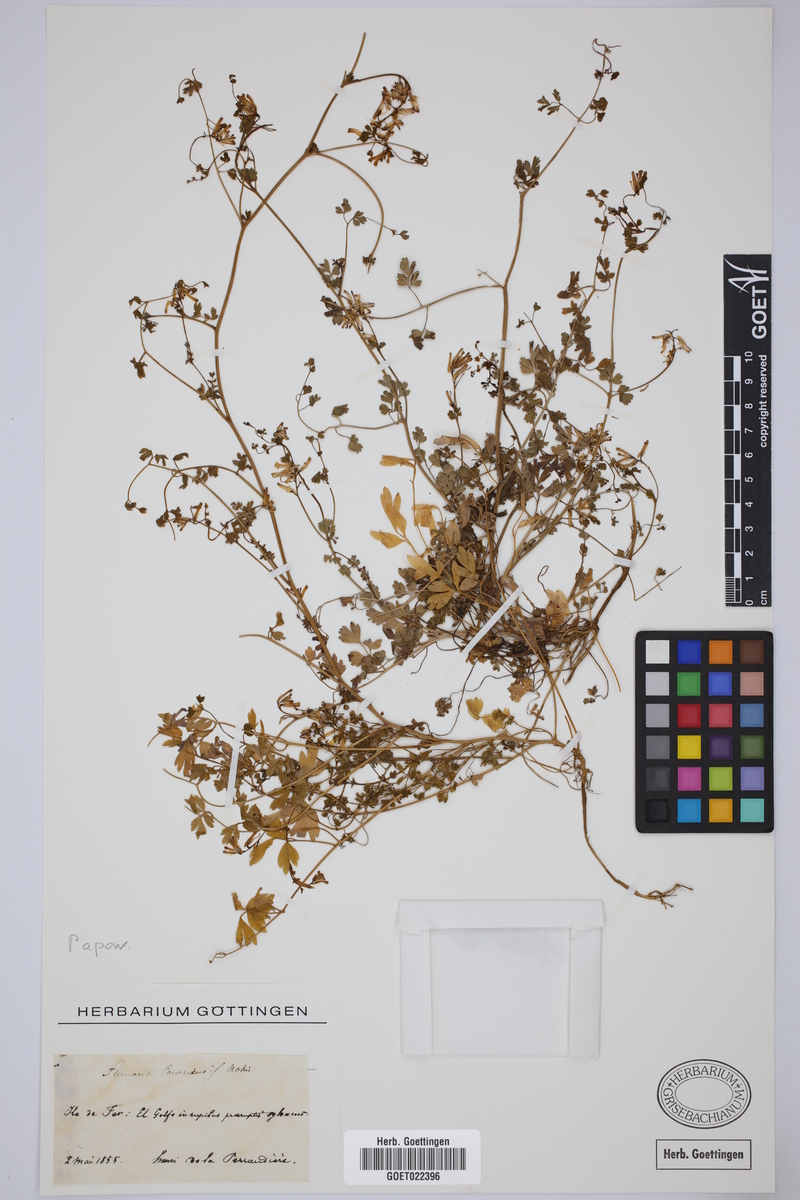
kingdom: Plantae
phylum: Tracheophyta
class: Magnoliopsida
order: Ranunculales
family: Papaveraceae
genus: Fumaria
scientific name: Fumaria canariensis
